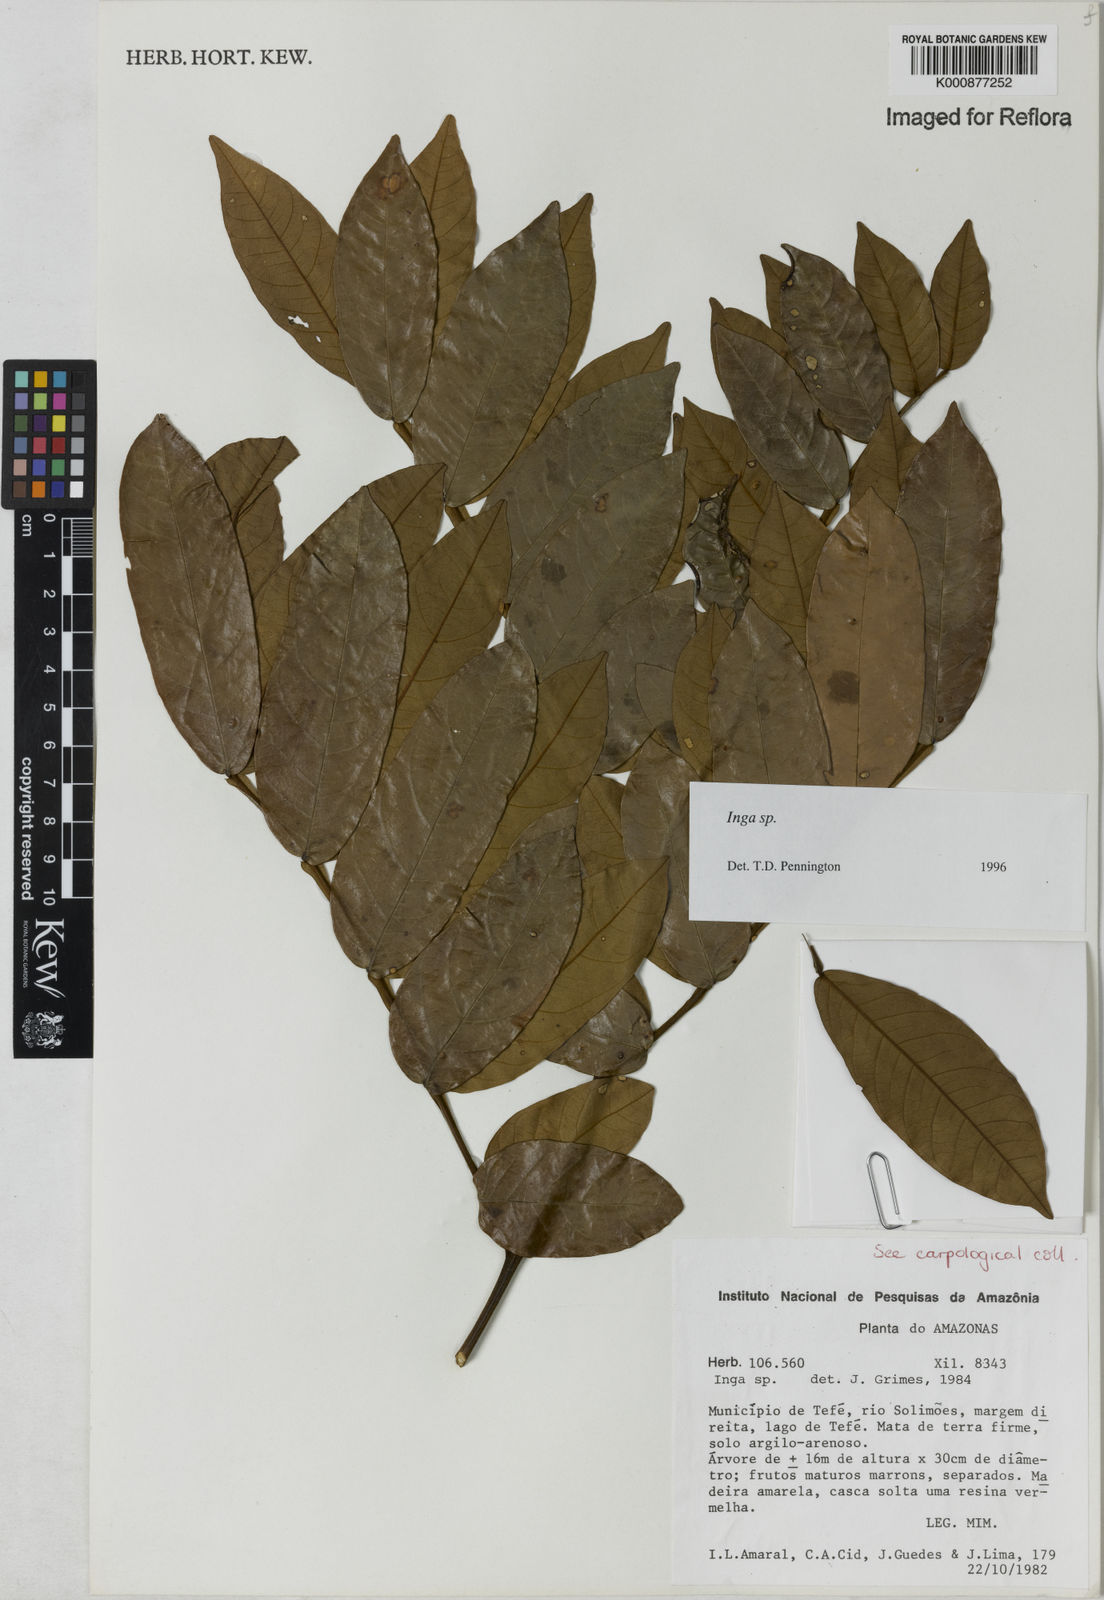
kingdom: Plantae
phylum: Tracheophyta
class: Magnoliopsida
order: Fabales
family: Fabaceae
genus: Inga
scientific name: Inga
